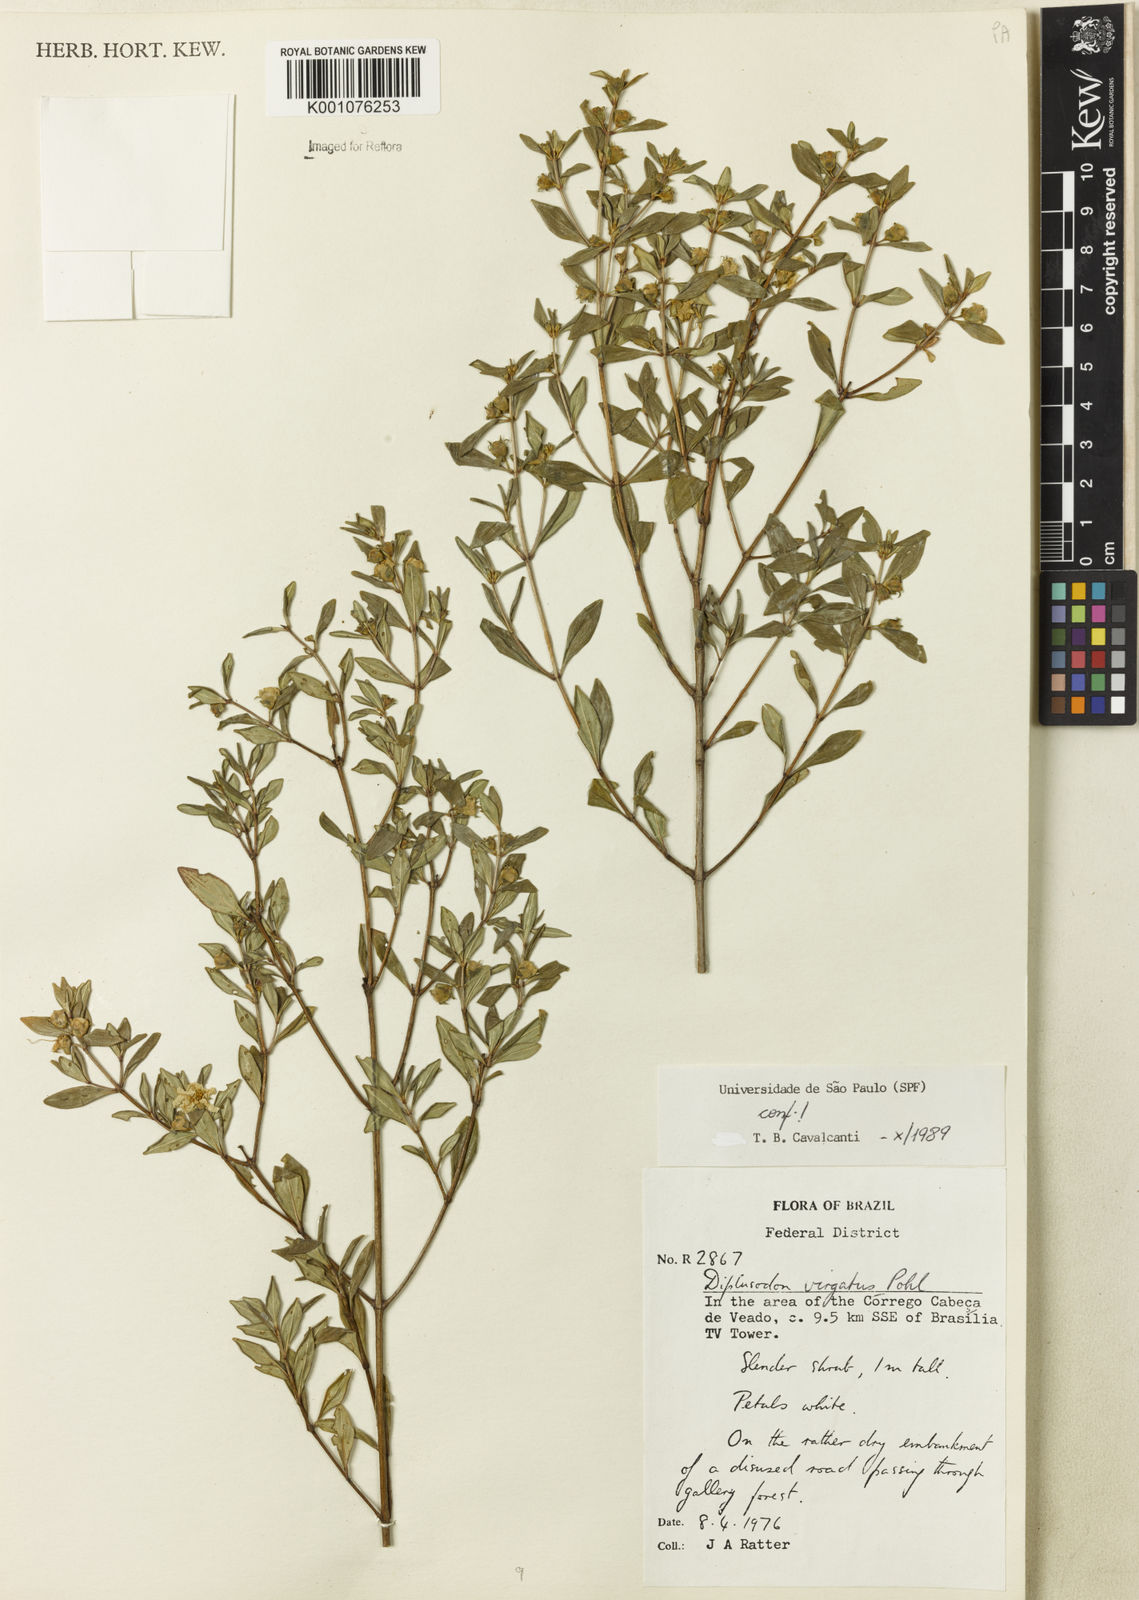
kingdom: Plantae
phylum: Tracheophyta
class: Magnoliopsida
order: Myrtales
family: Lythraceae
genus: Diplusodon
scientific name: Diplusodon virgatus
